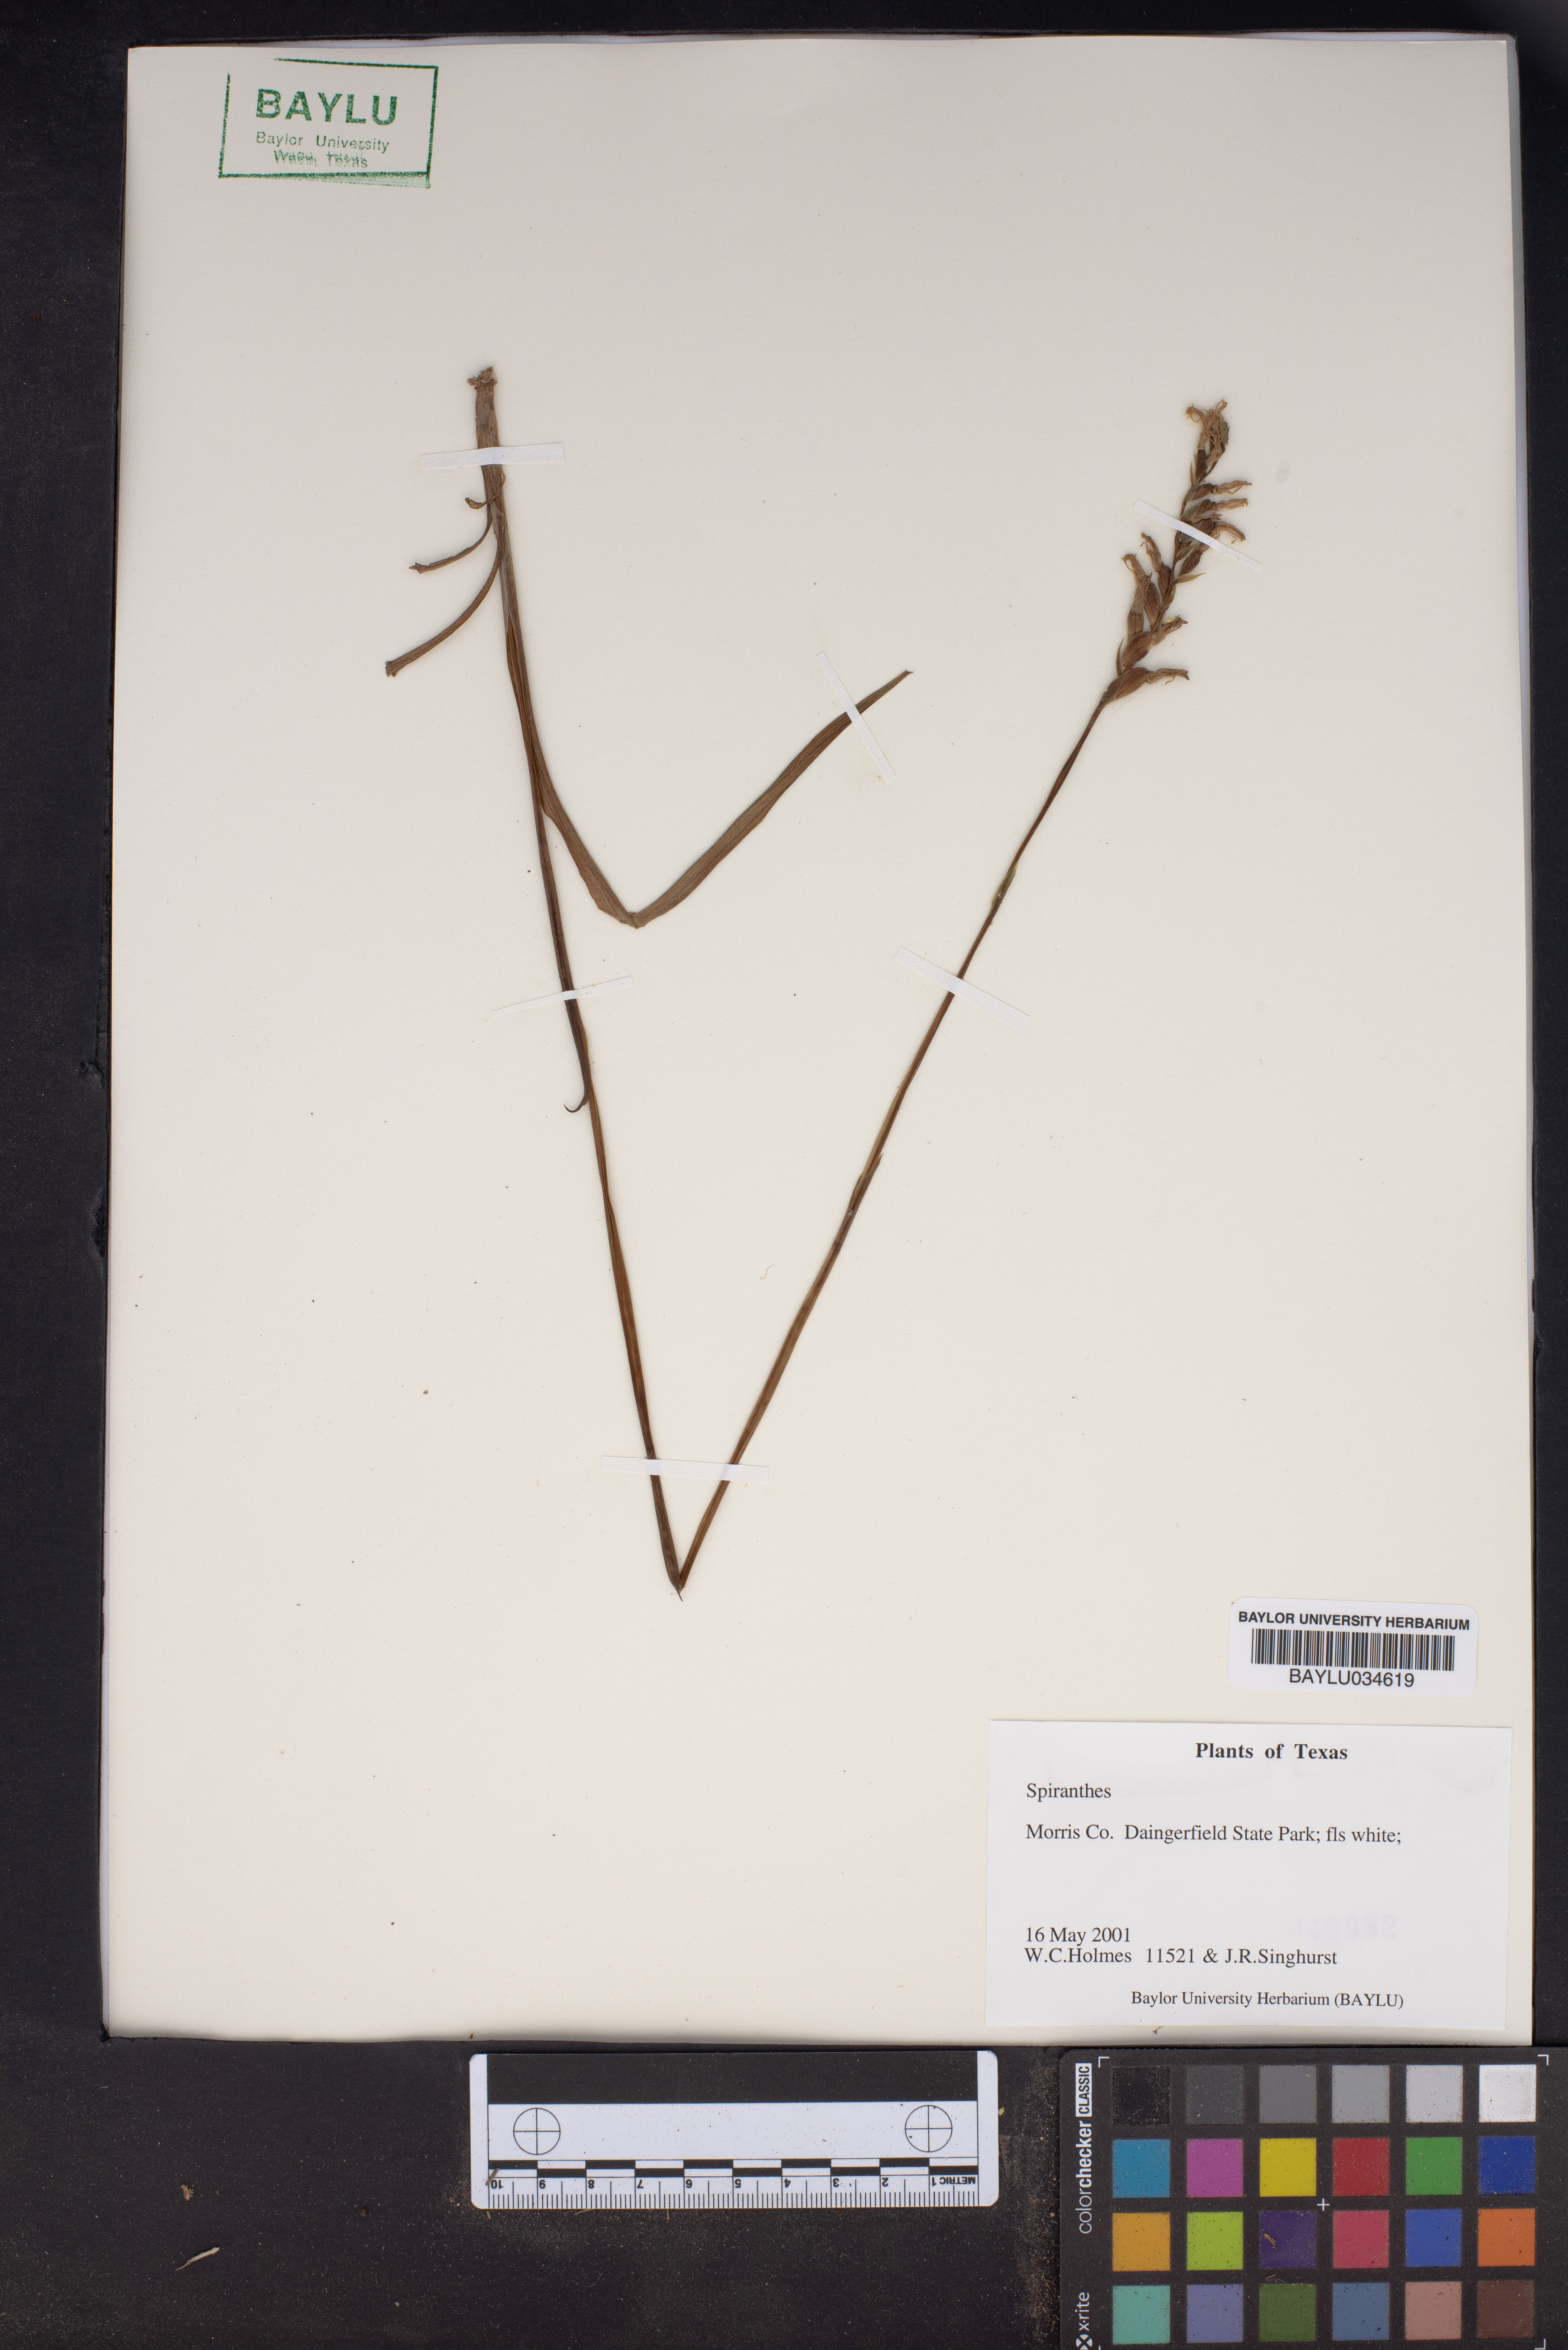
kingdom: Plantae
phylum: Tracheophyta
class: Liliopsida
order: Asparagales
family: Orchidaceae
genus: Spiranthes
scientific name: Spiranthes
